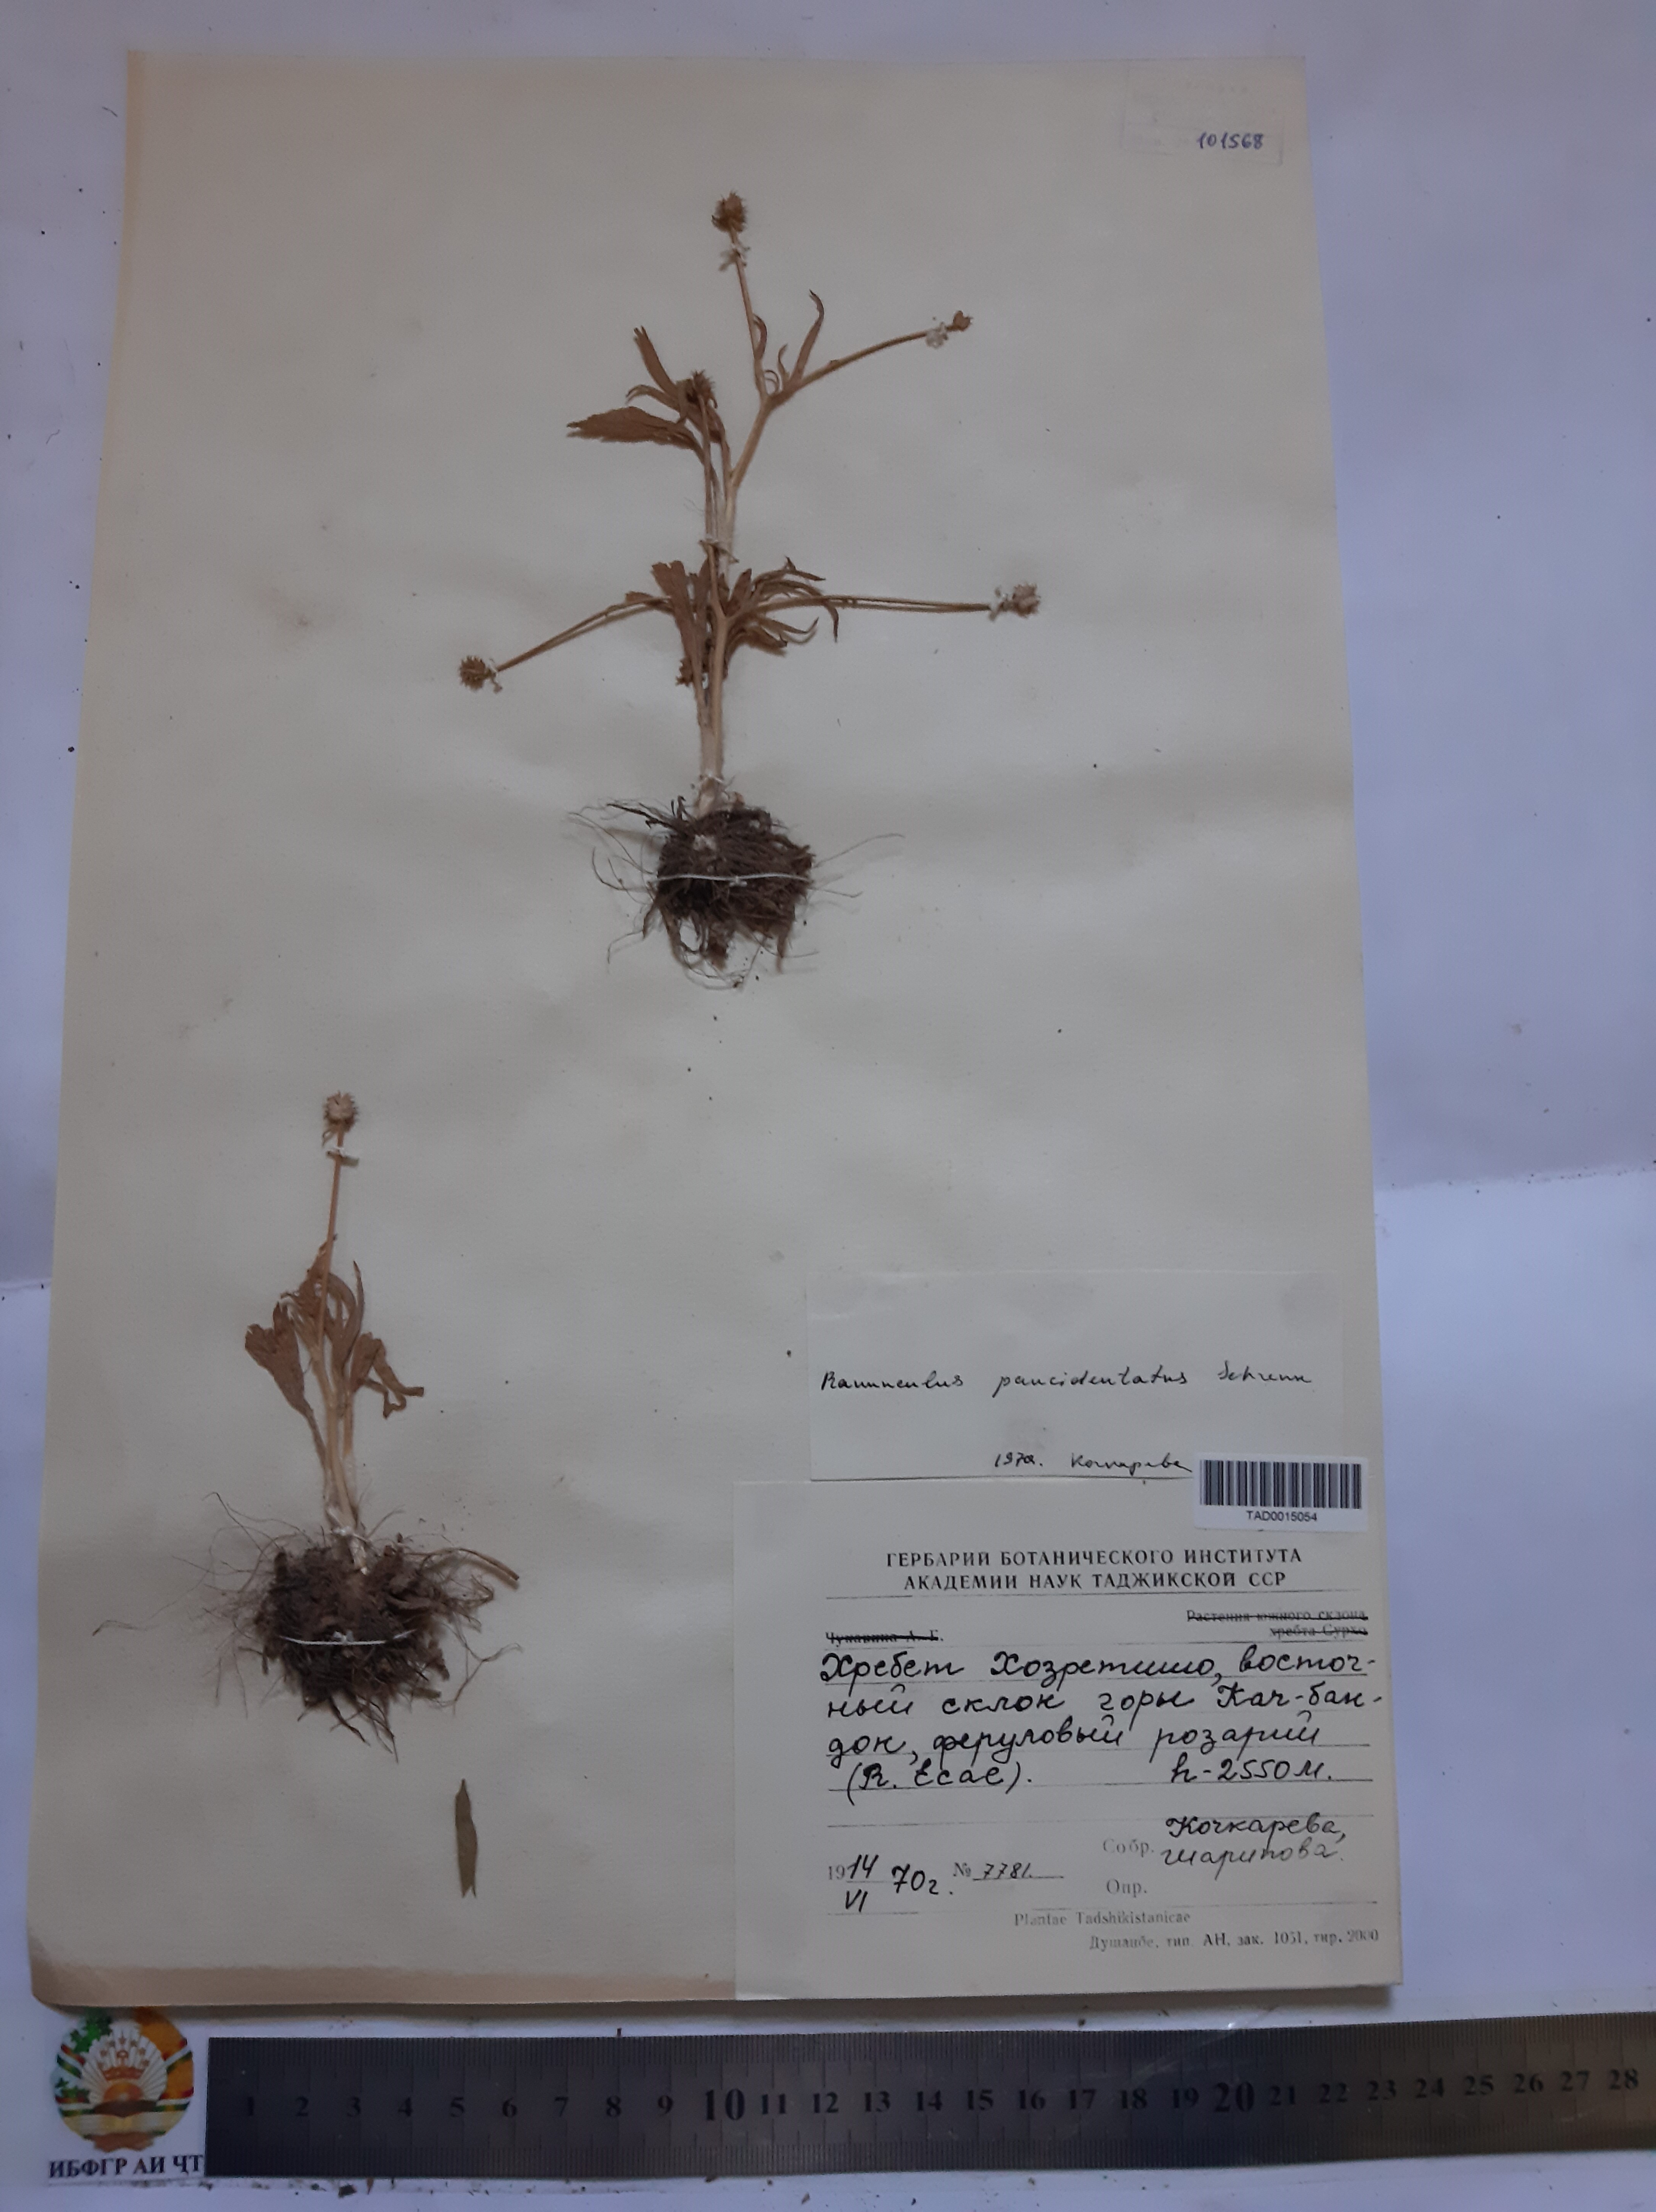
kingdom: Plantae
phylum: Tracheophyta
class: Magnoliopsida
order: Ranunculales
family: Ranunculaceae
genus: Ranunculus
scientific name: Ranunculus paucidentatus
